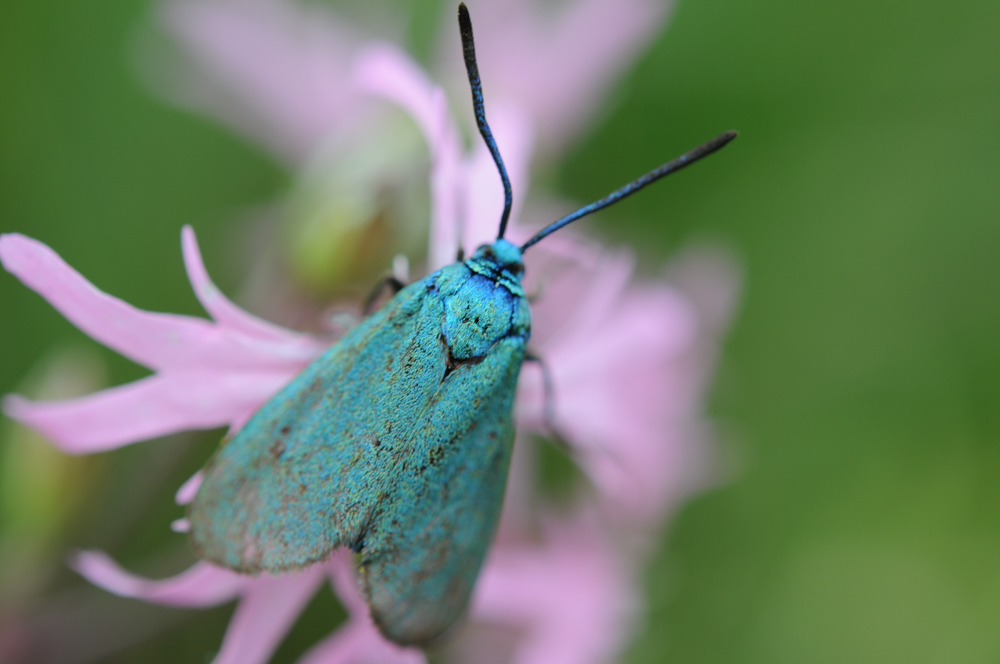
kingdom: Animalia
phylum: Arthropoda
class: Insecta
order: Lepidoptera
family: Zygaenidae
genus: Adscita
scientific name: Adscita statices
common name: Forester
